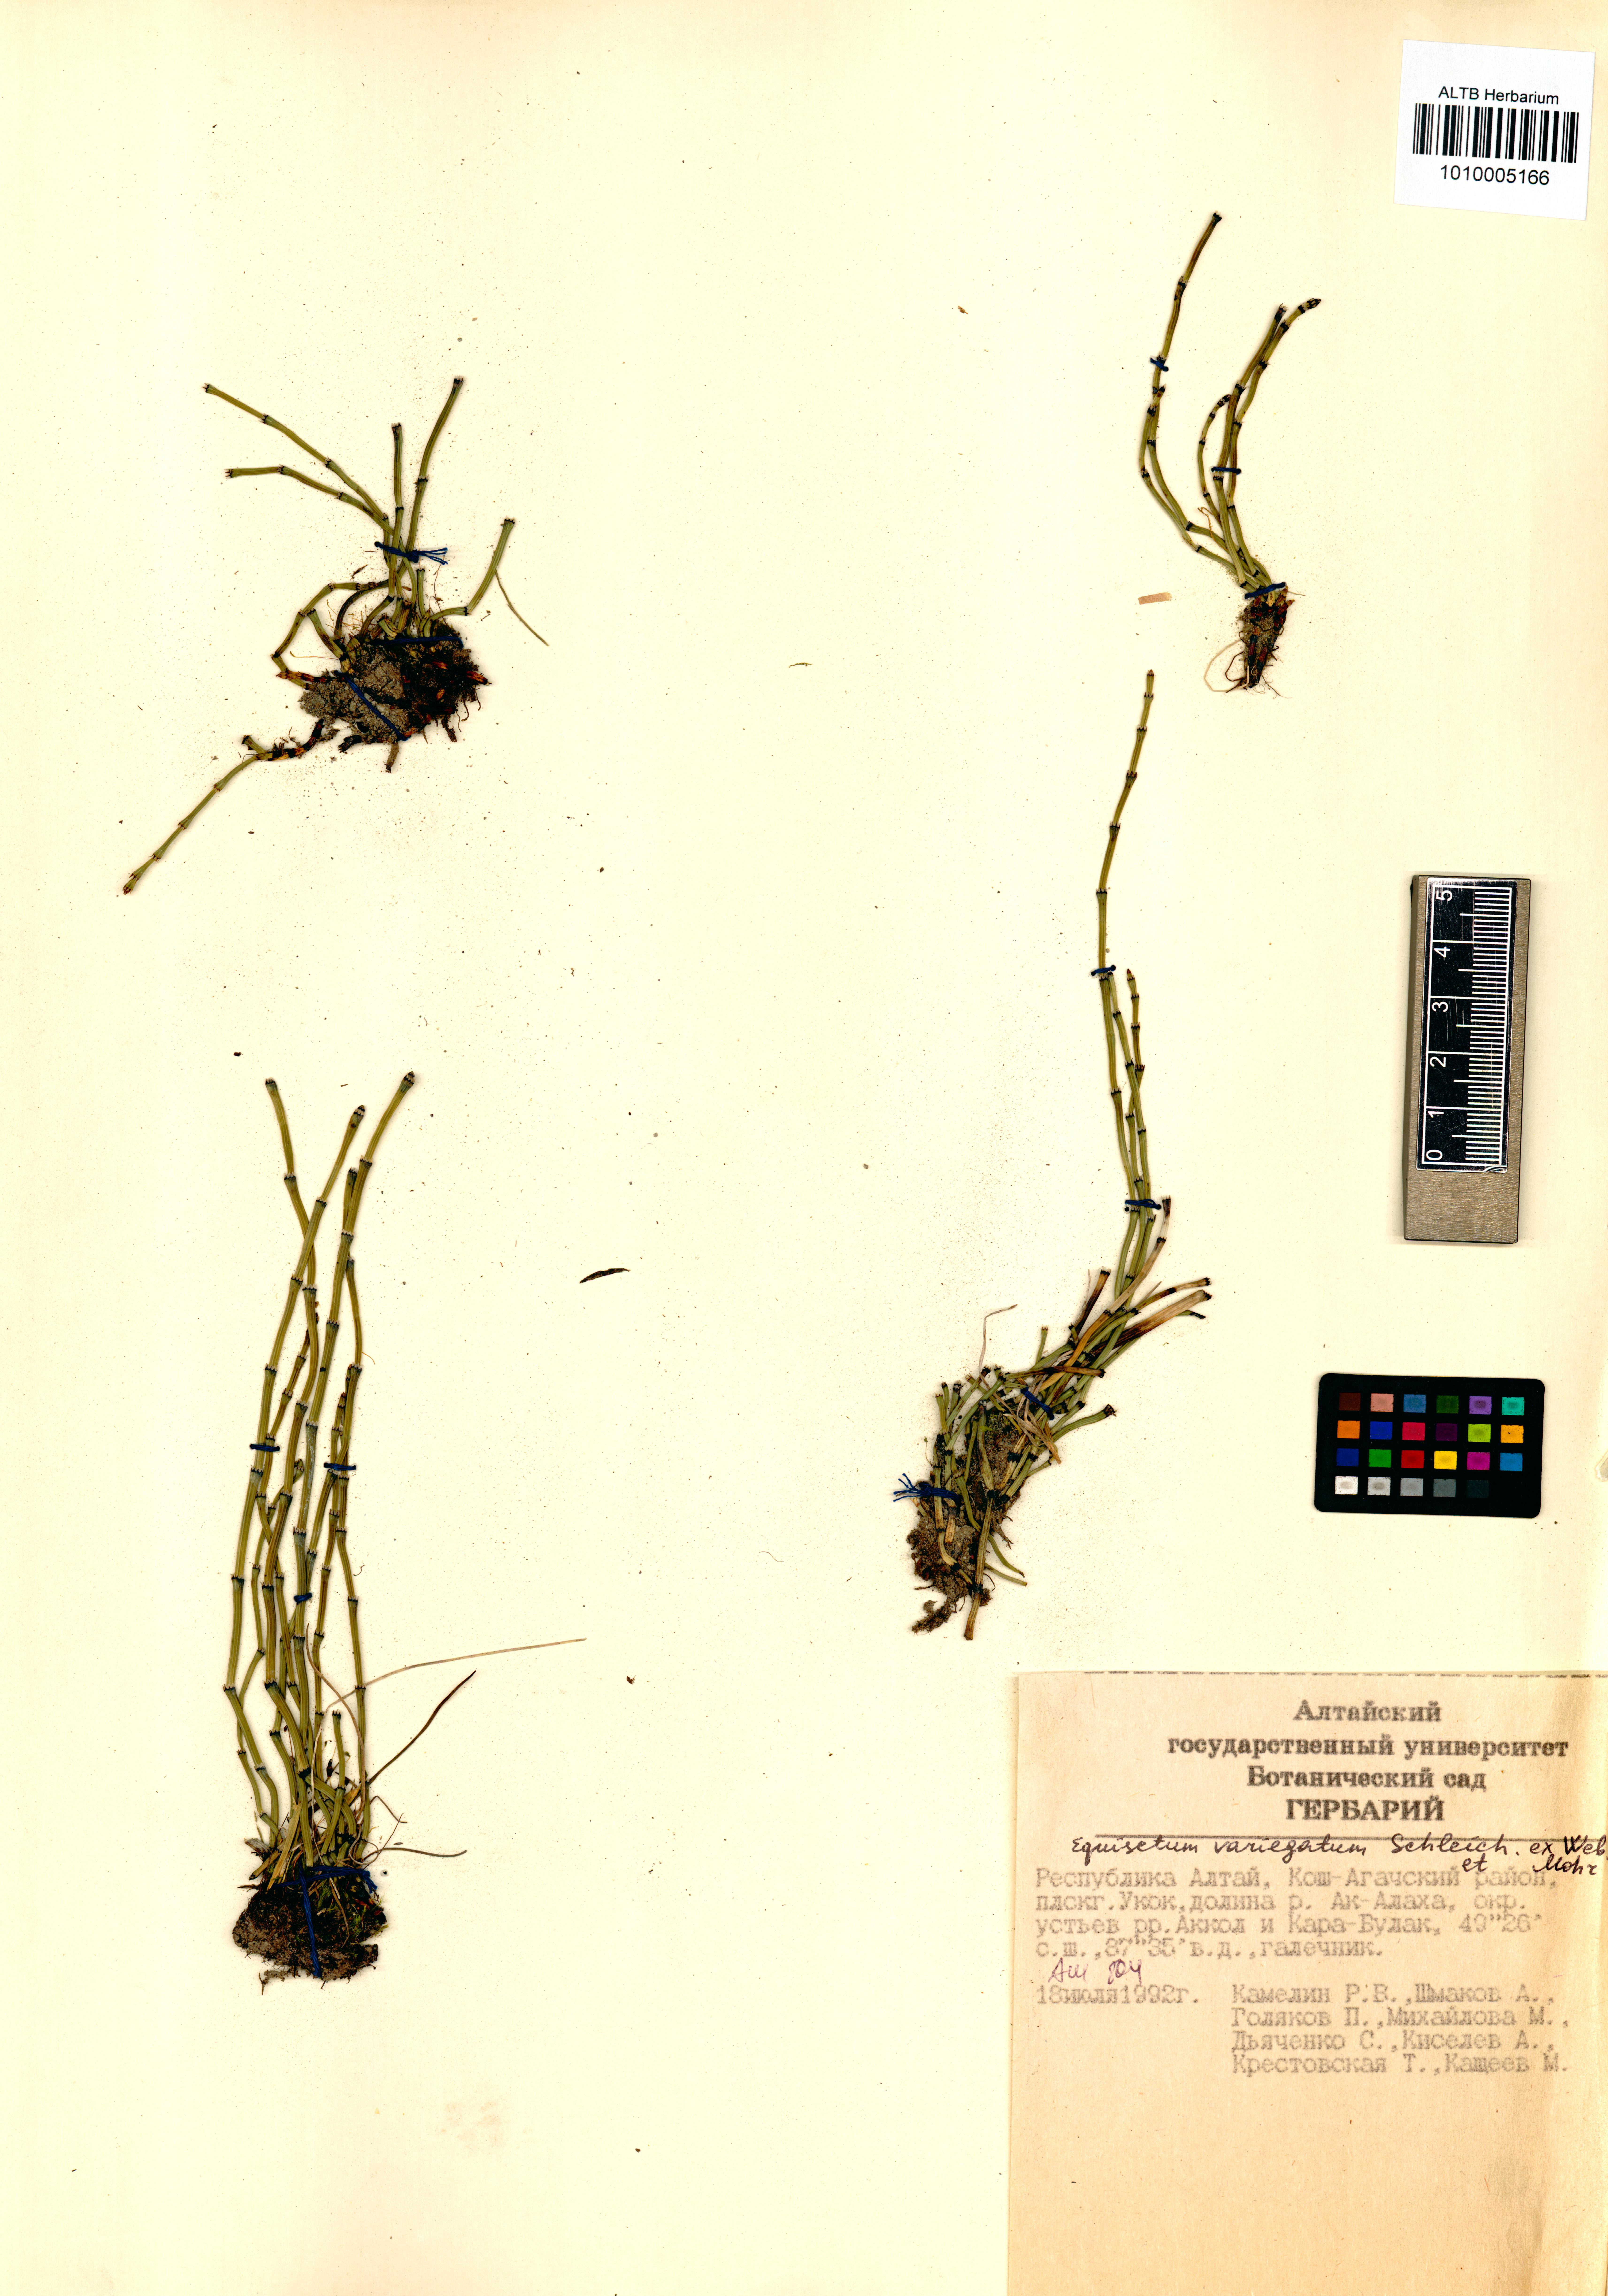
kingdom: Plantae
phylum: Tracheophyta
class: Polypodiopsida
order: Equisetales
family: Equisetaceae
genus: Equisetum
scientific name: Equisetum variegatum
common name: Variegated horsetail
